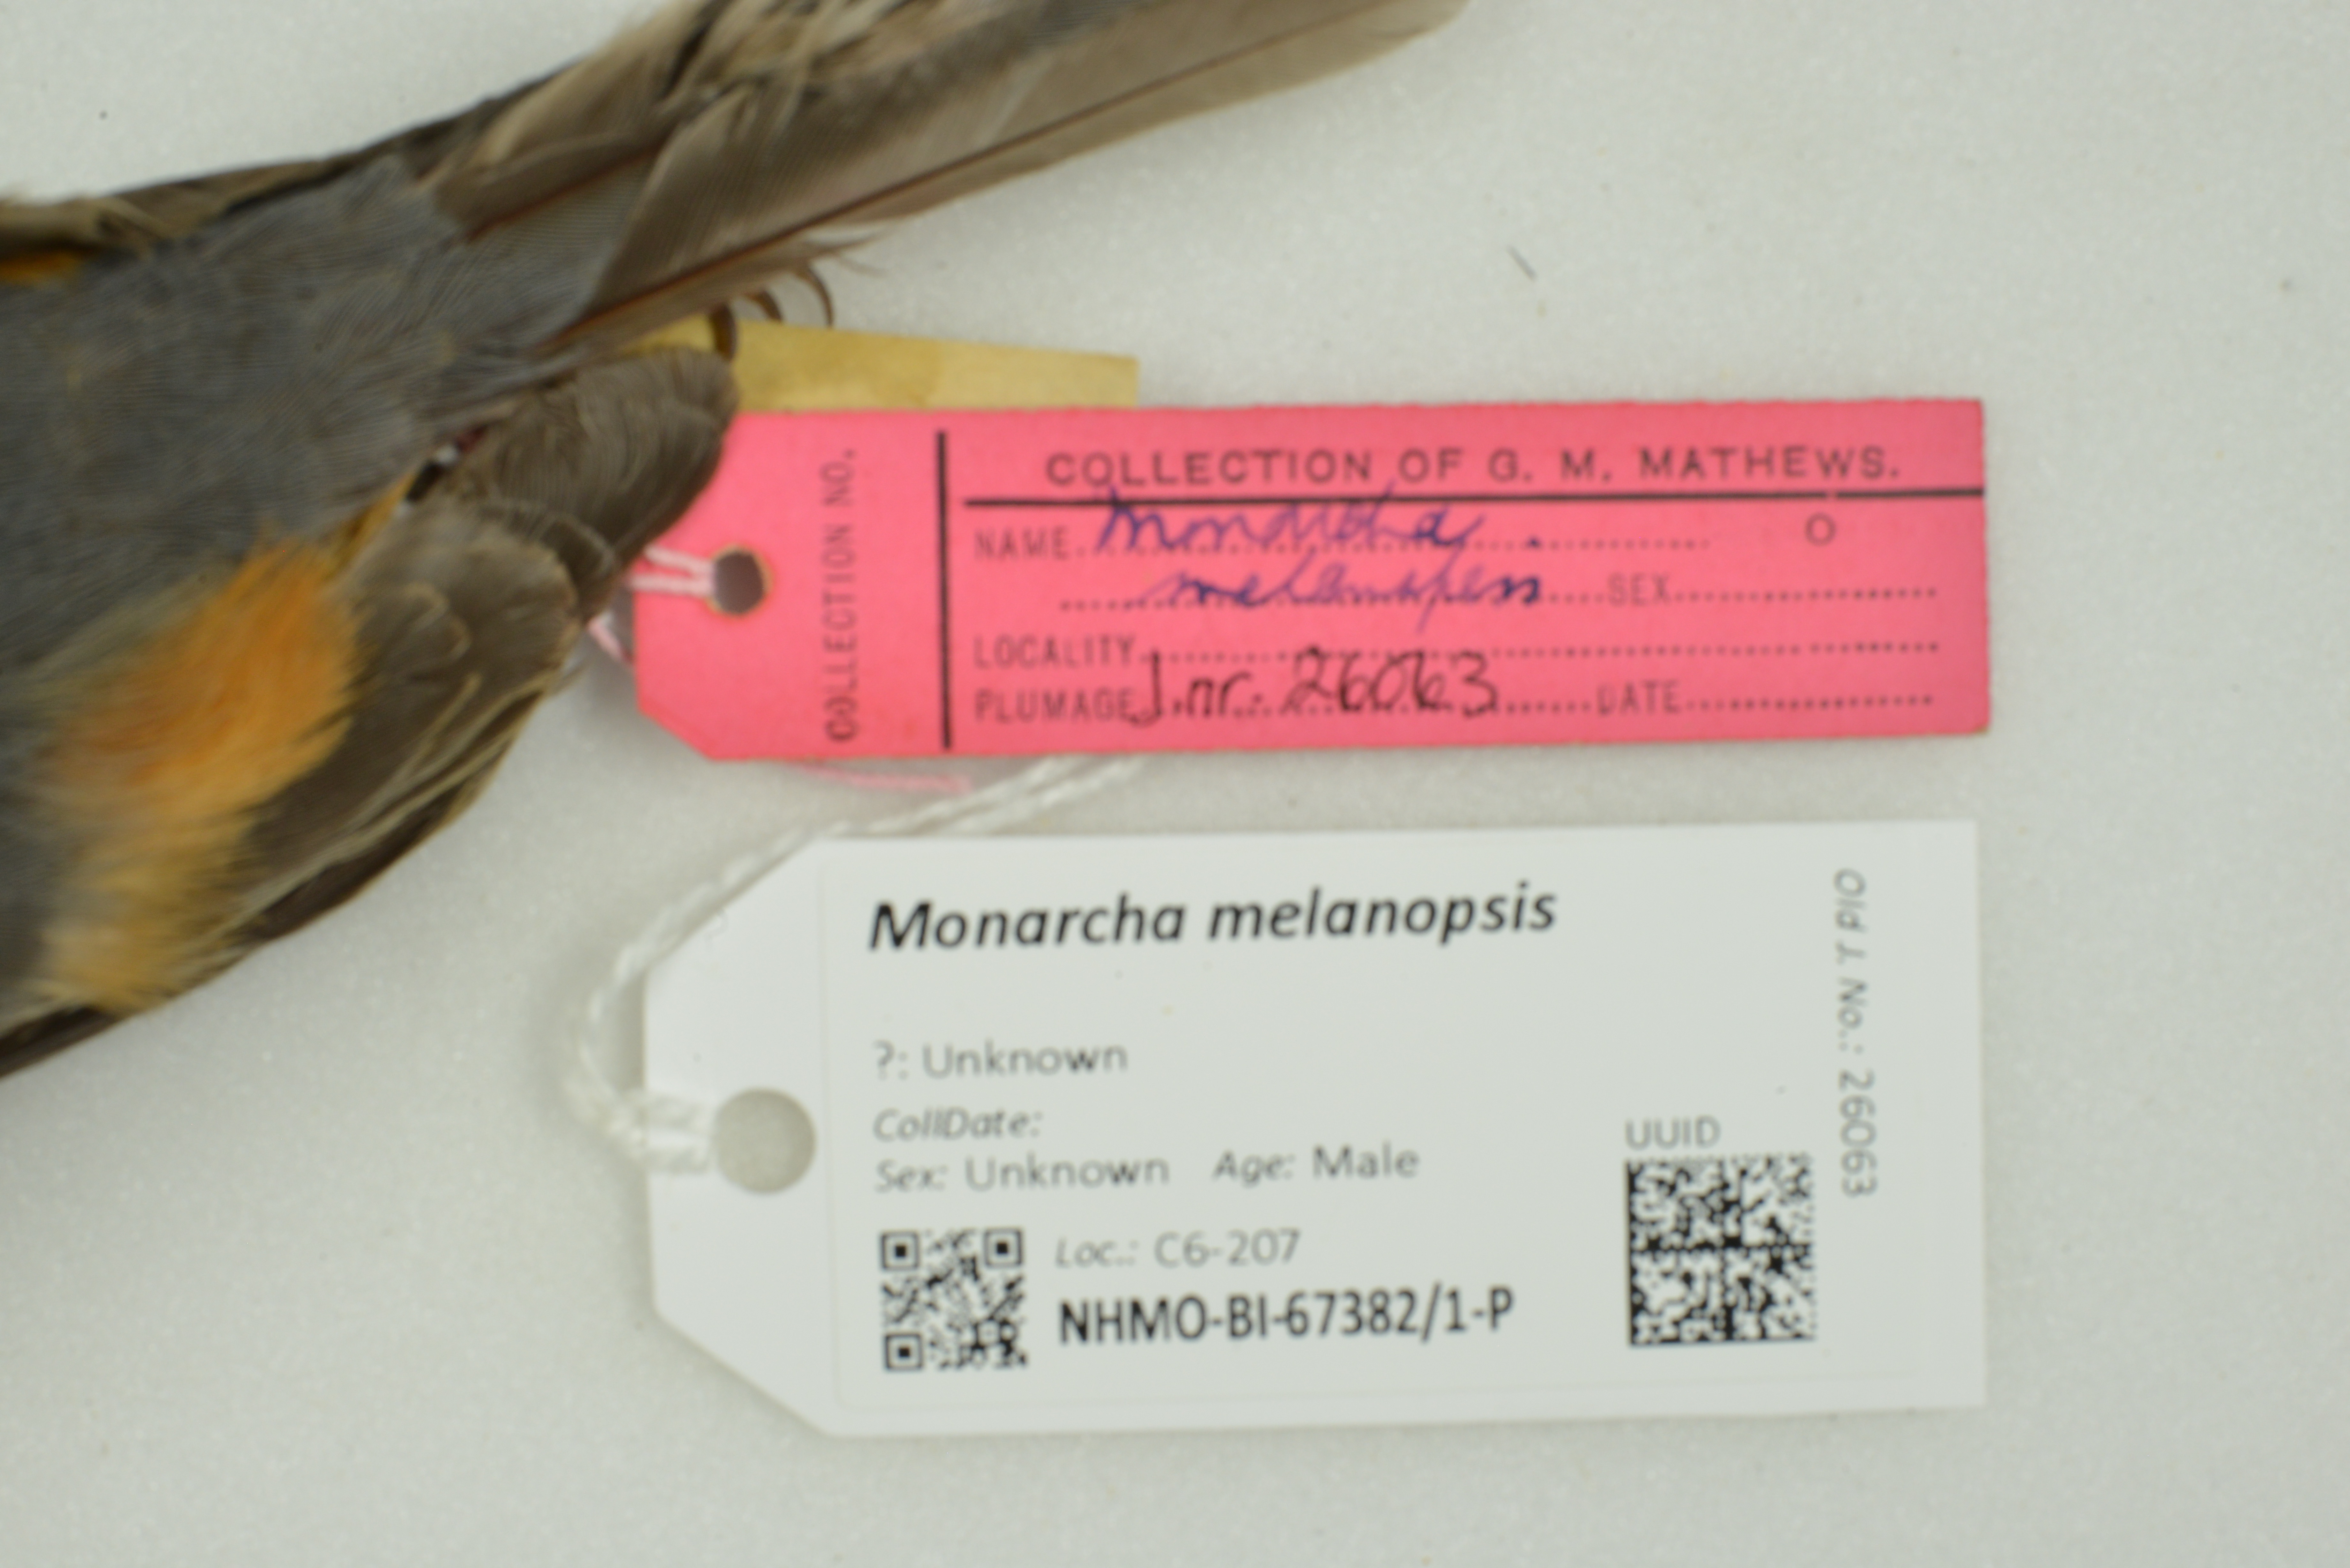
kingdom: Animalia
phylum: Chordata
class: Aves
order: Passeriformes
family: Monarchidae
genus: Monarcha
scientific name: Monarcha melanopsis
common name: Black-faced monarch
